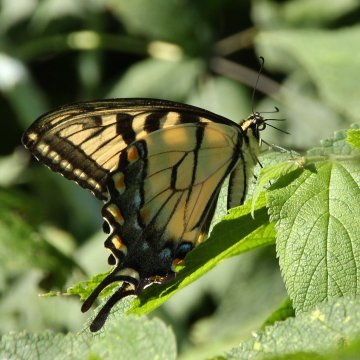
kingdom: Animalia
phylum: Arthropoda
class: Insecta
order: Lepidoptera
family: Papilionidae
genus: Pterourus
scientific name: Pterourus glaucus
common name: Eastern Tiger Swallowtail
